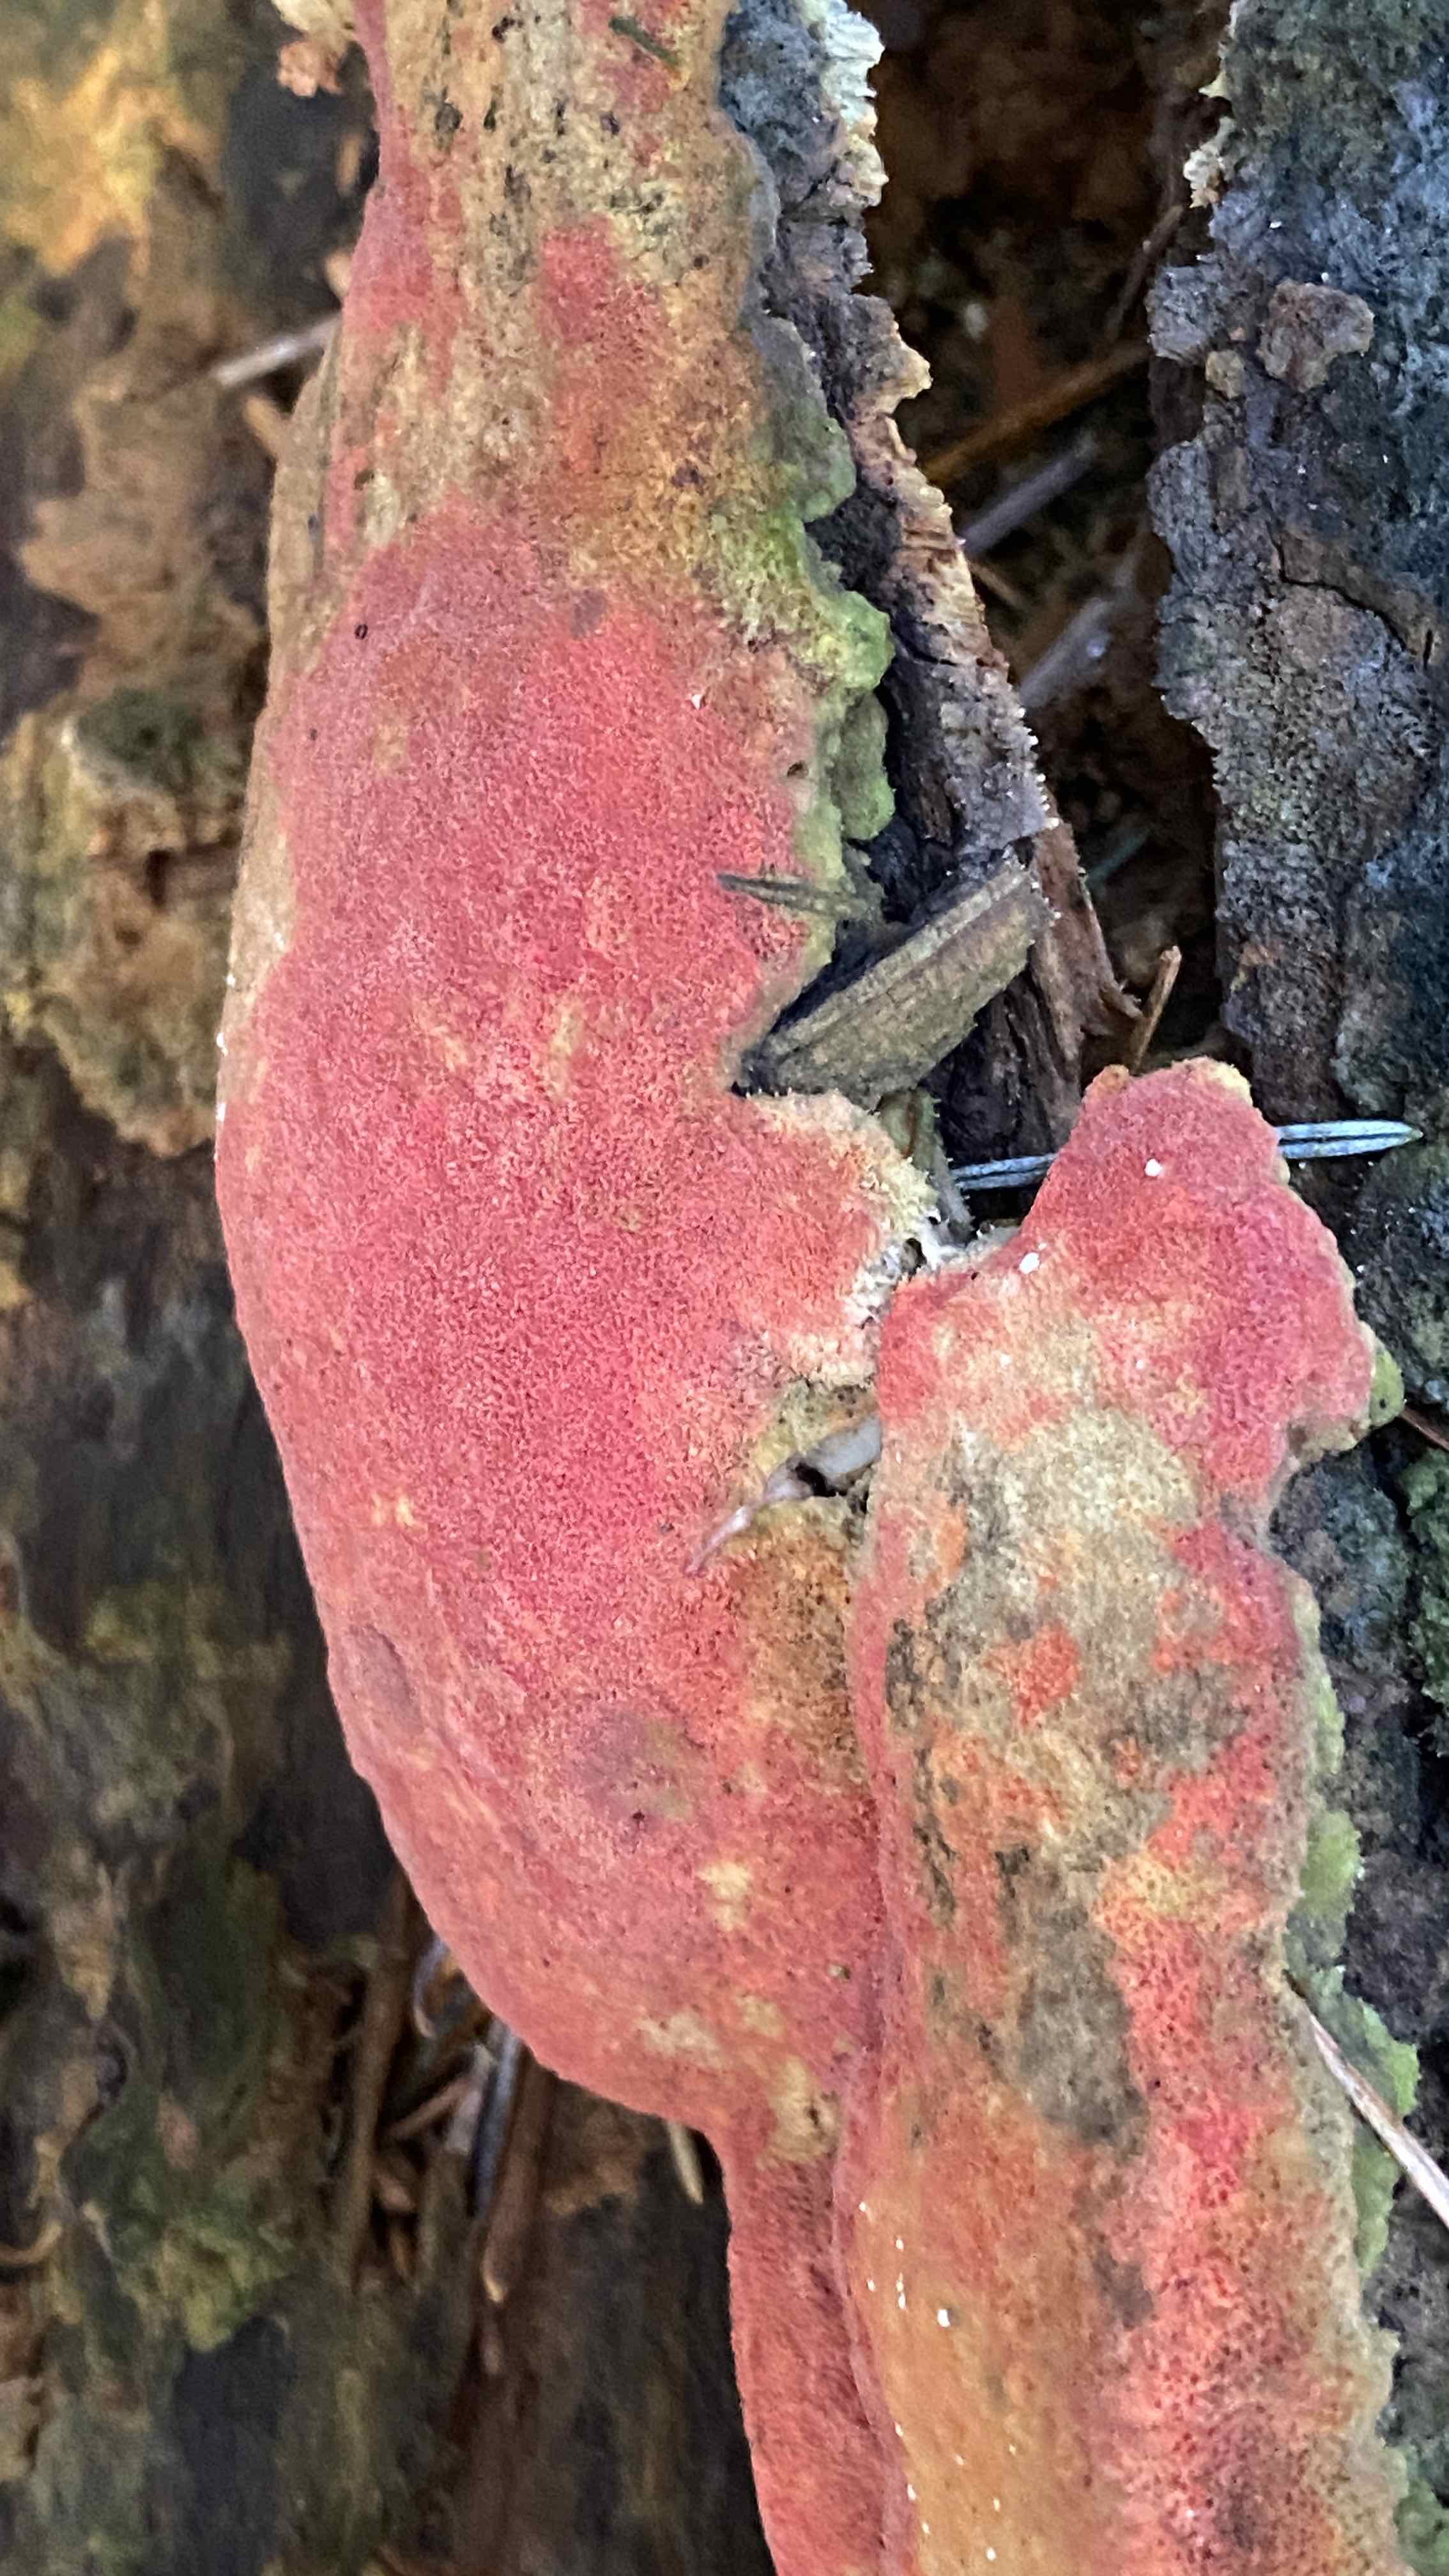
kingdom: Fungi
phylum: Basidiomycota
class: Agaricomycetes
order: Polyporales
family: Fomitopsidaceae
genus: Neoantrodia
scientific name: Neoantrodia serialis
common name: række-sejporesvamp
